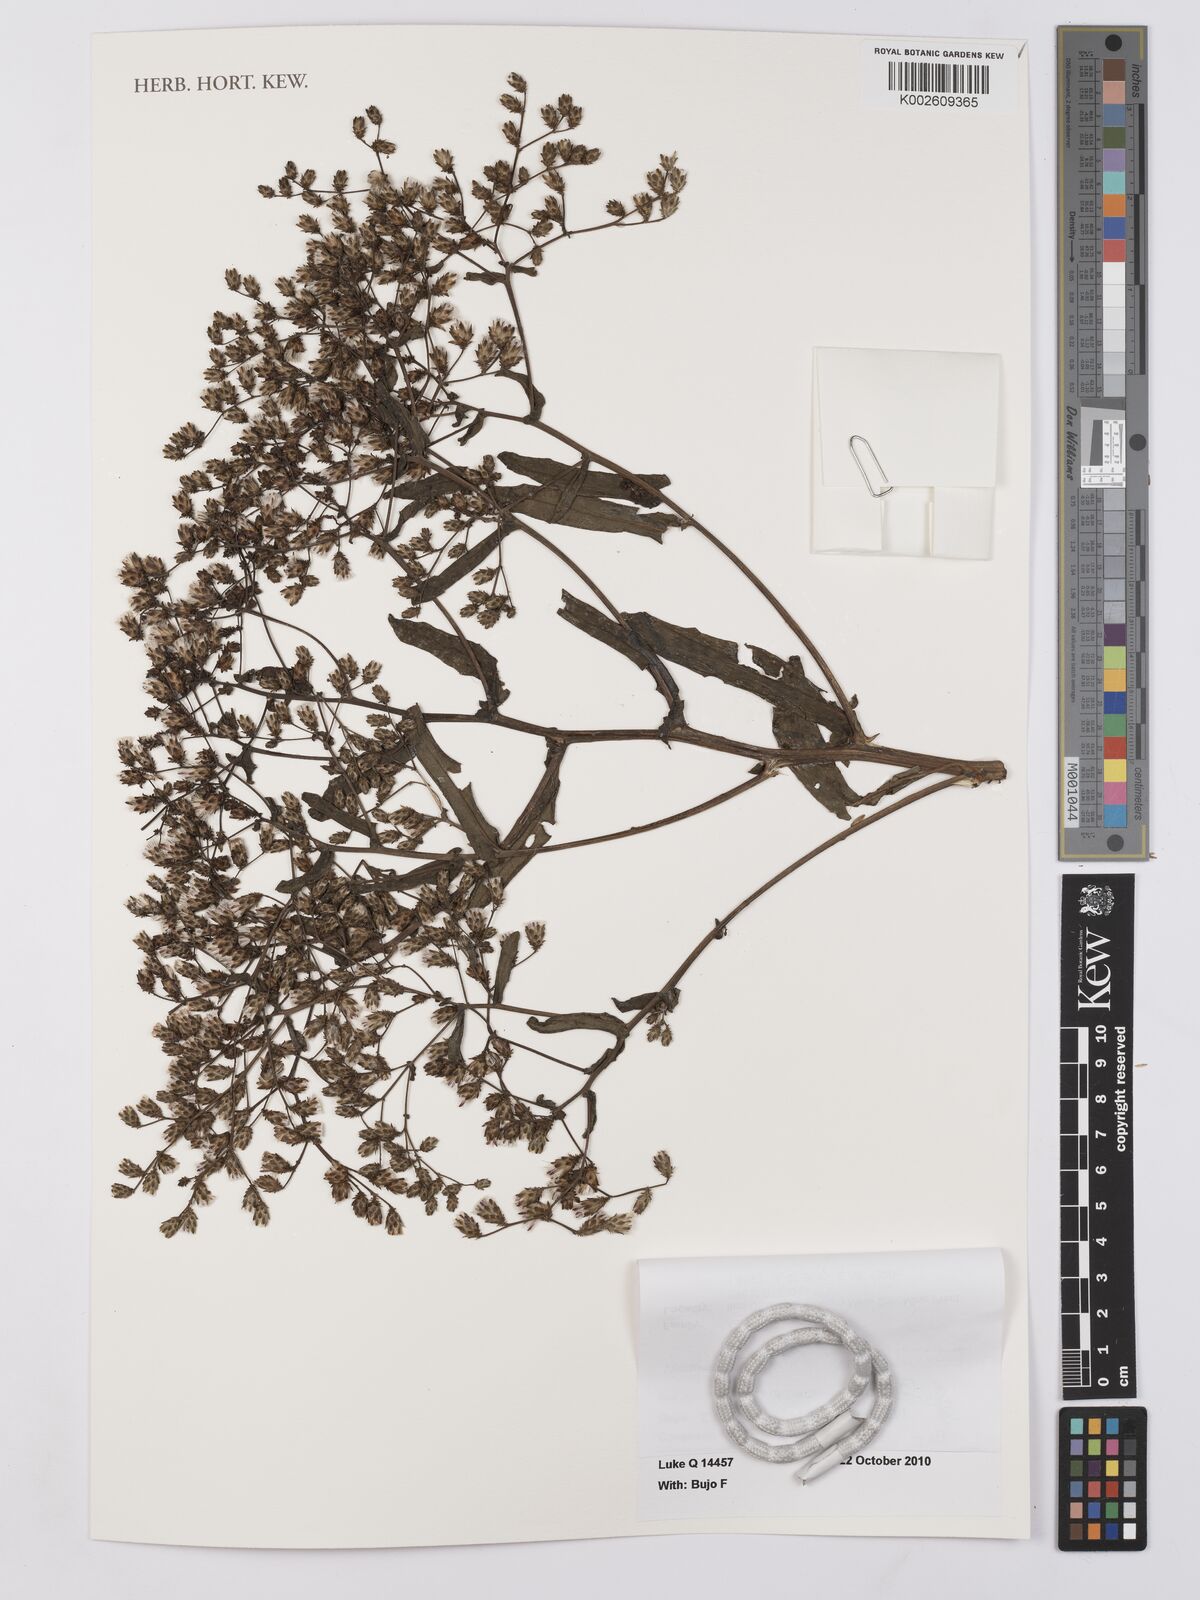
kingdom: Plantae
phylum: Tracheophyta
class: Magnoliopsida
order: Asterales
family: Asteraceae
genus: Vernonia
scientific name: Vernonia ischnophylla
